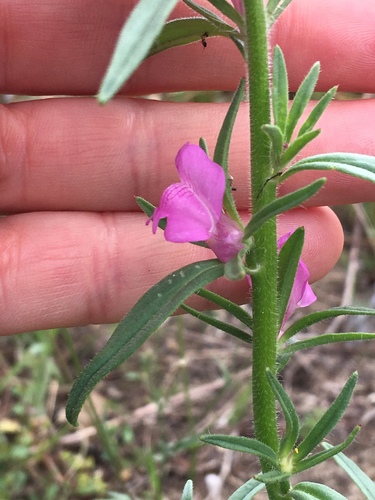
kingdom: Plantae
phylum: Tracheophyta
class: Magnoliopsida
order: Lamiales
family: Plantaginaceae
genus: Misopates
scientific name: Misopates orontium
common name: Weasel's-snout
